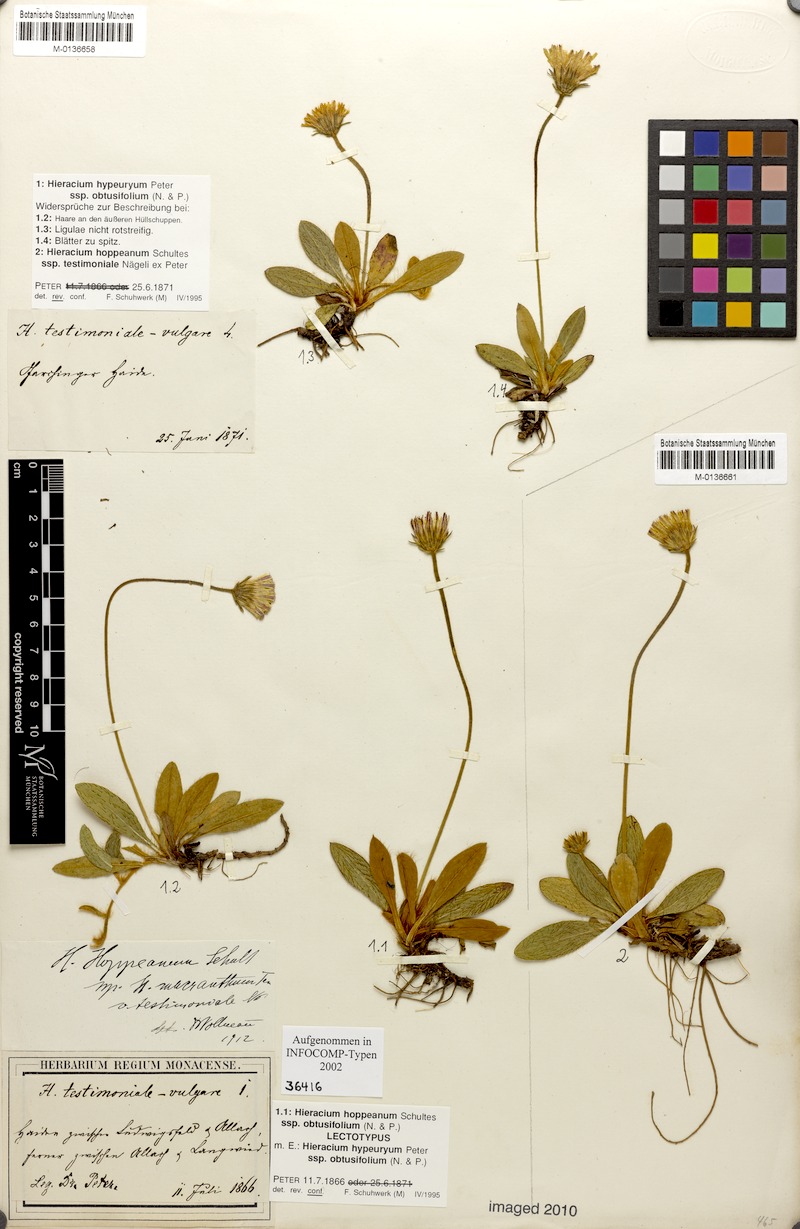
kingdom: Plantae
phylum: Tracheophyta
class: Magnoliopsida
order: Asterales
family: Asteraceae
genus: Pilosella
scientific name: Pilosella leucopsilon
